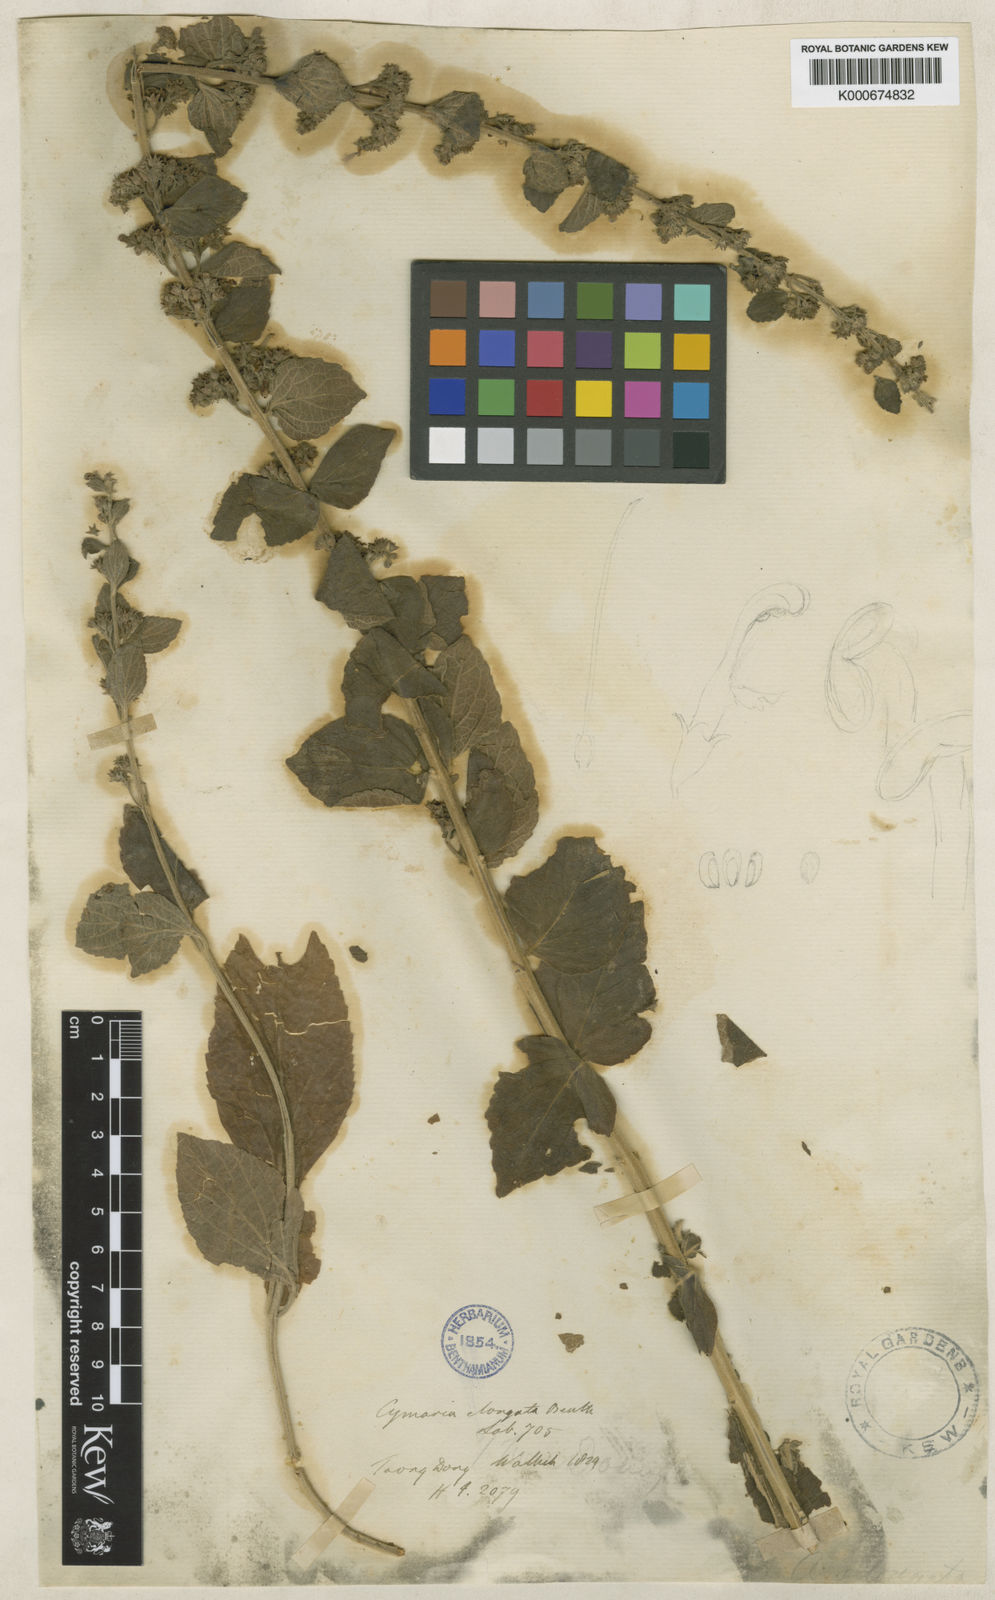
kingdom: Plantae
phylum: Tracheophyta
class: Magnoliopsida
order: Lamiales
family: Lamiaceae
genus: Cymaria
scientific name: Cymaria elongata
